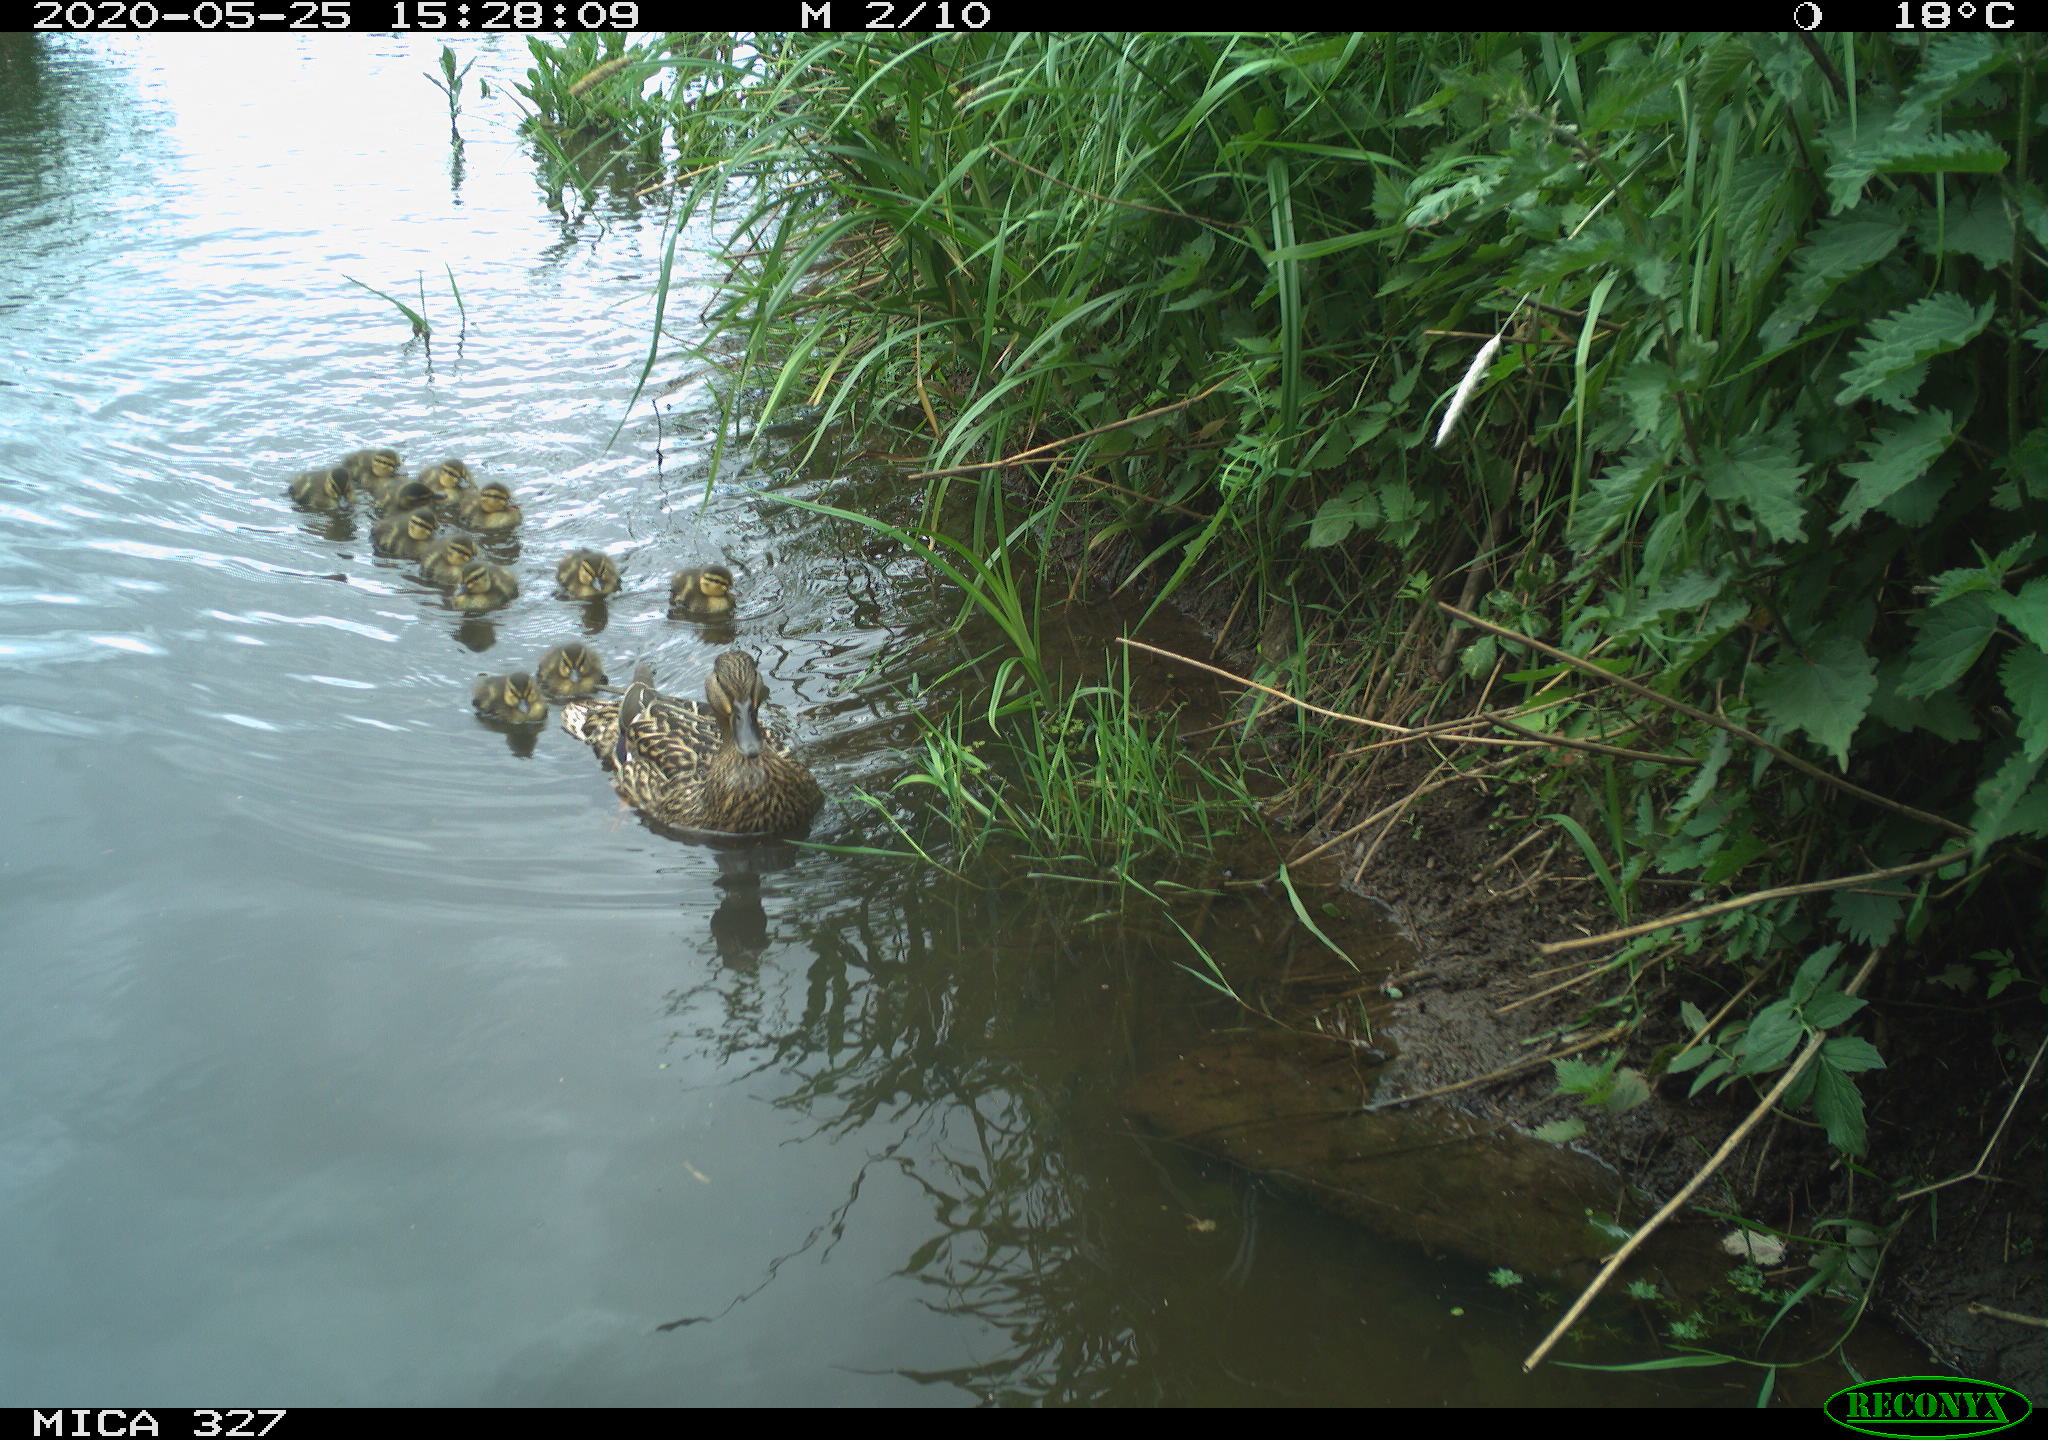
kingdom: Animalia
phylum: Chordata
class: Aves
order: Anseriformes
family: Anatidae
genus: Anas
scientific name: Anas platyrhynchos
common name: Mallard
